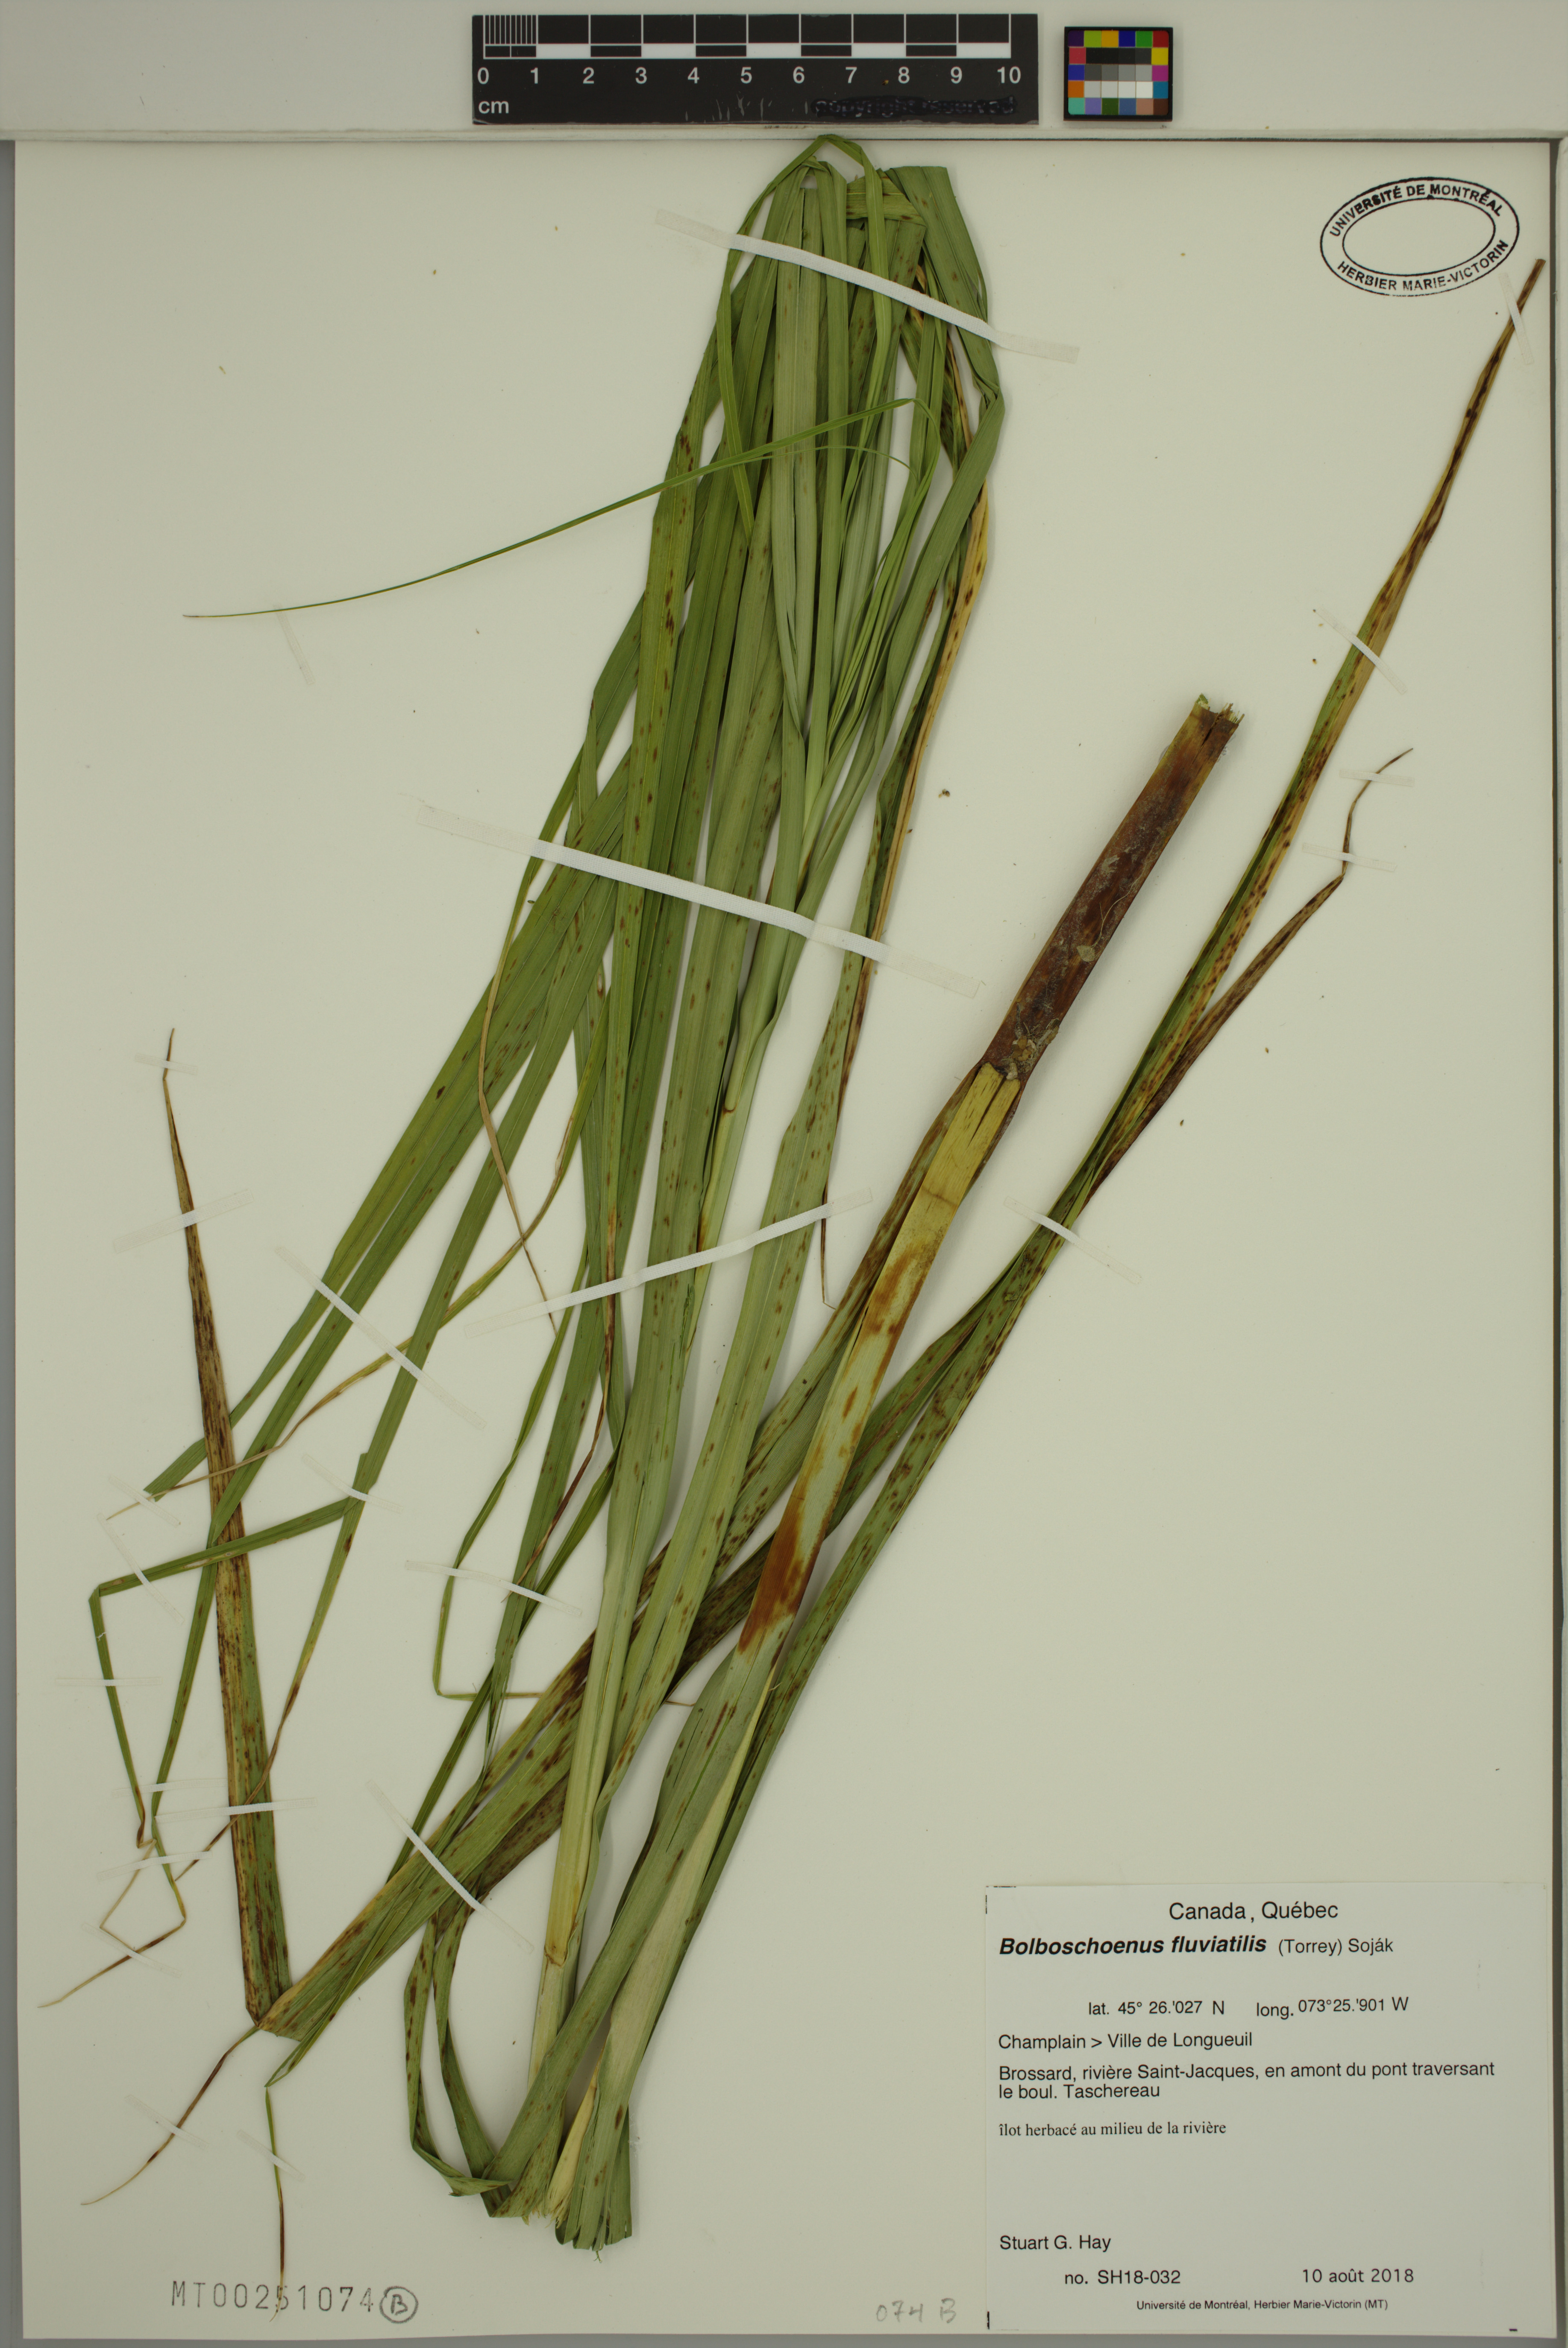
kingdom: Plantae
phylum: Tracheophyta
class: Liliopsida
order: Poales
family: Cyperaceae
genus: Bolboschoenus
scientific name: Bolboschoenus fluviatilis
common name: River bulrush
